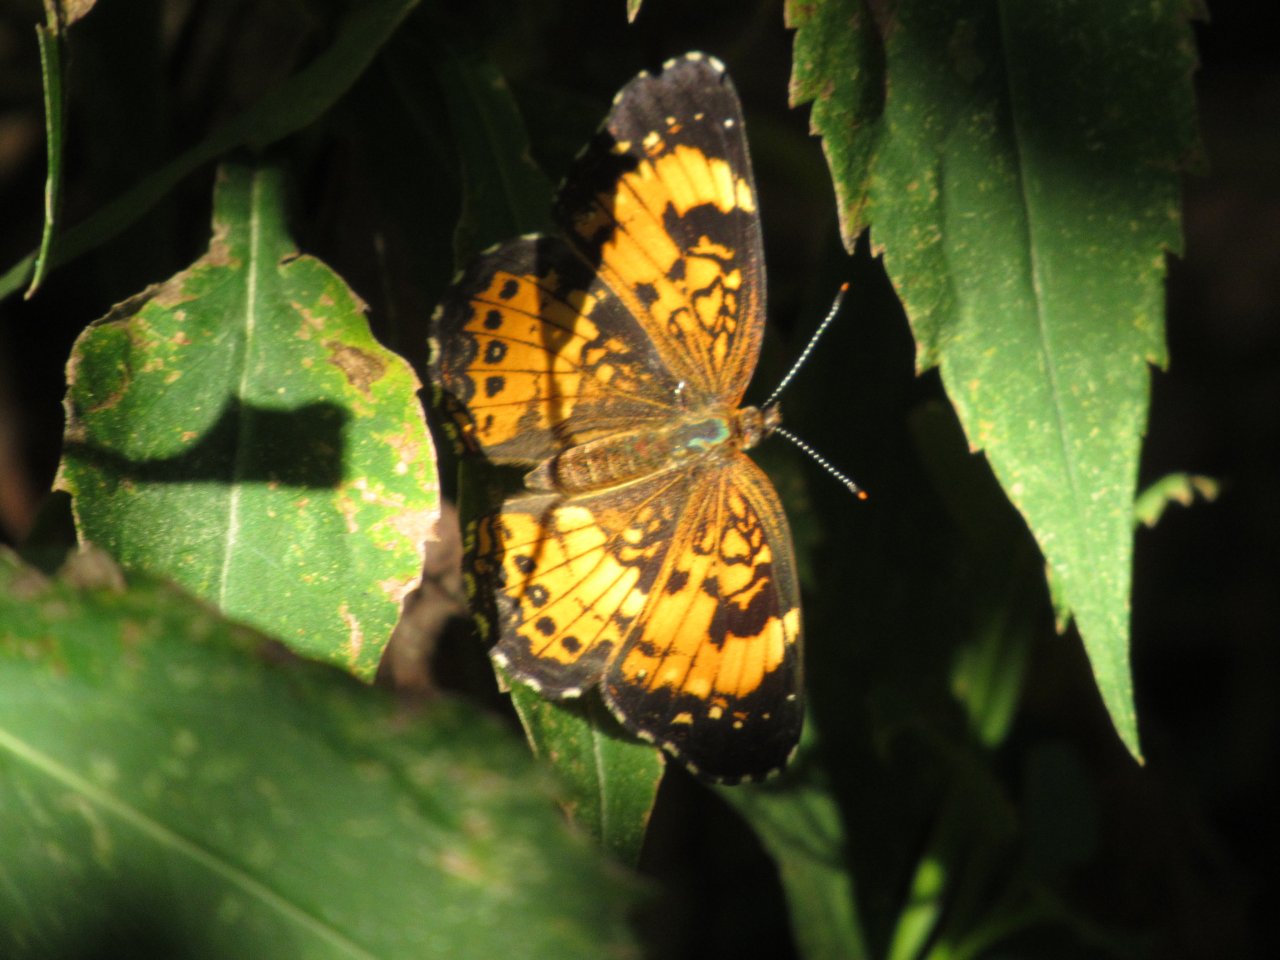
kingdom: Animalia
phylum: Arthropoda
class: Insecta
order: Lepidoptera
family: Nymphalidae
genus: Chlosyne
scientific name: Chlosyne nycteis
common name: Silvery Checkerspot
